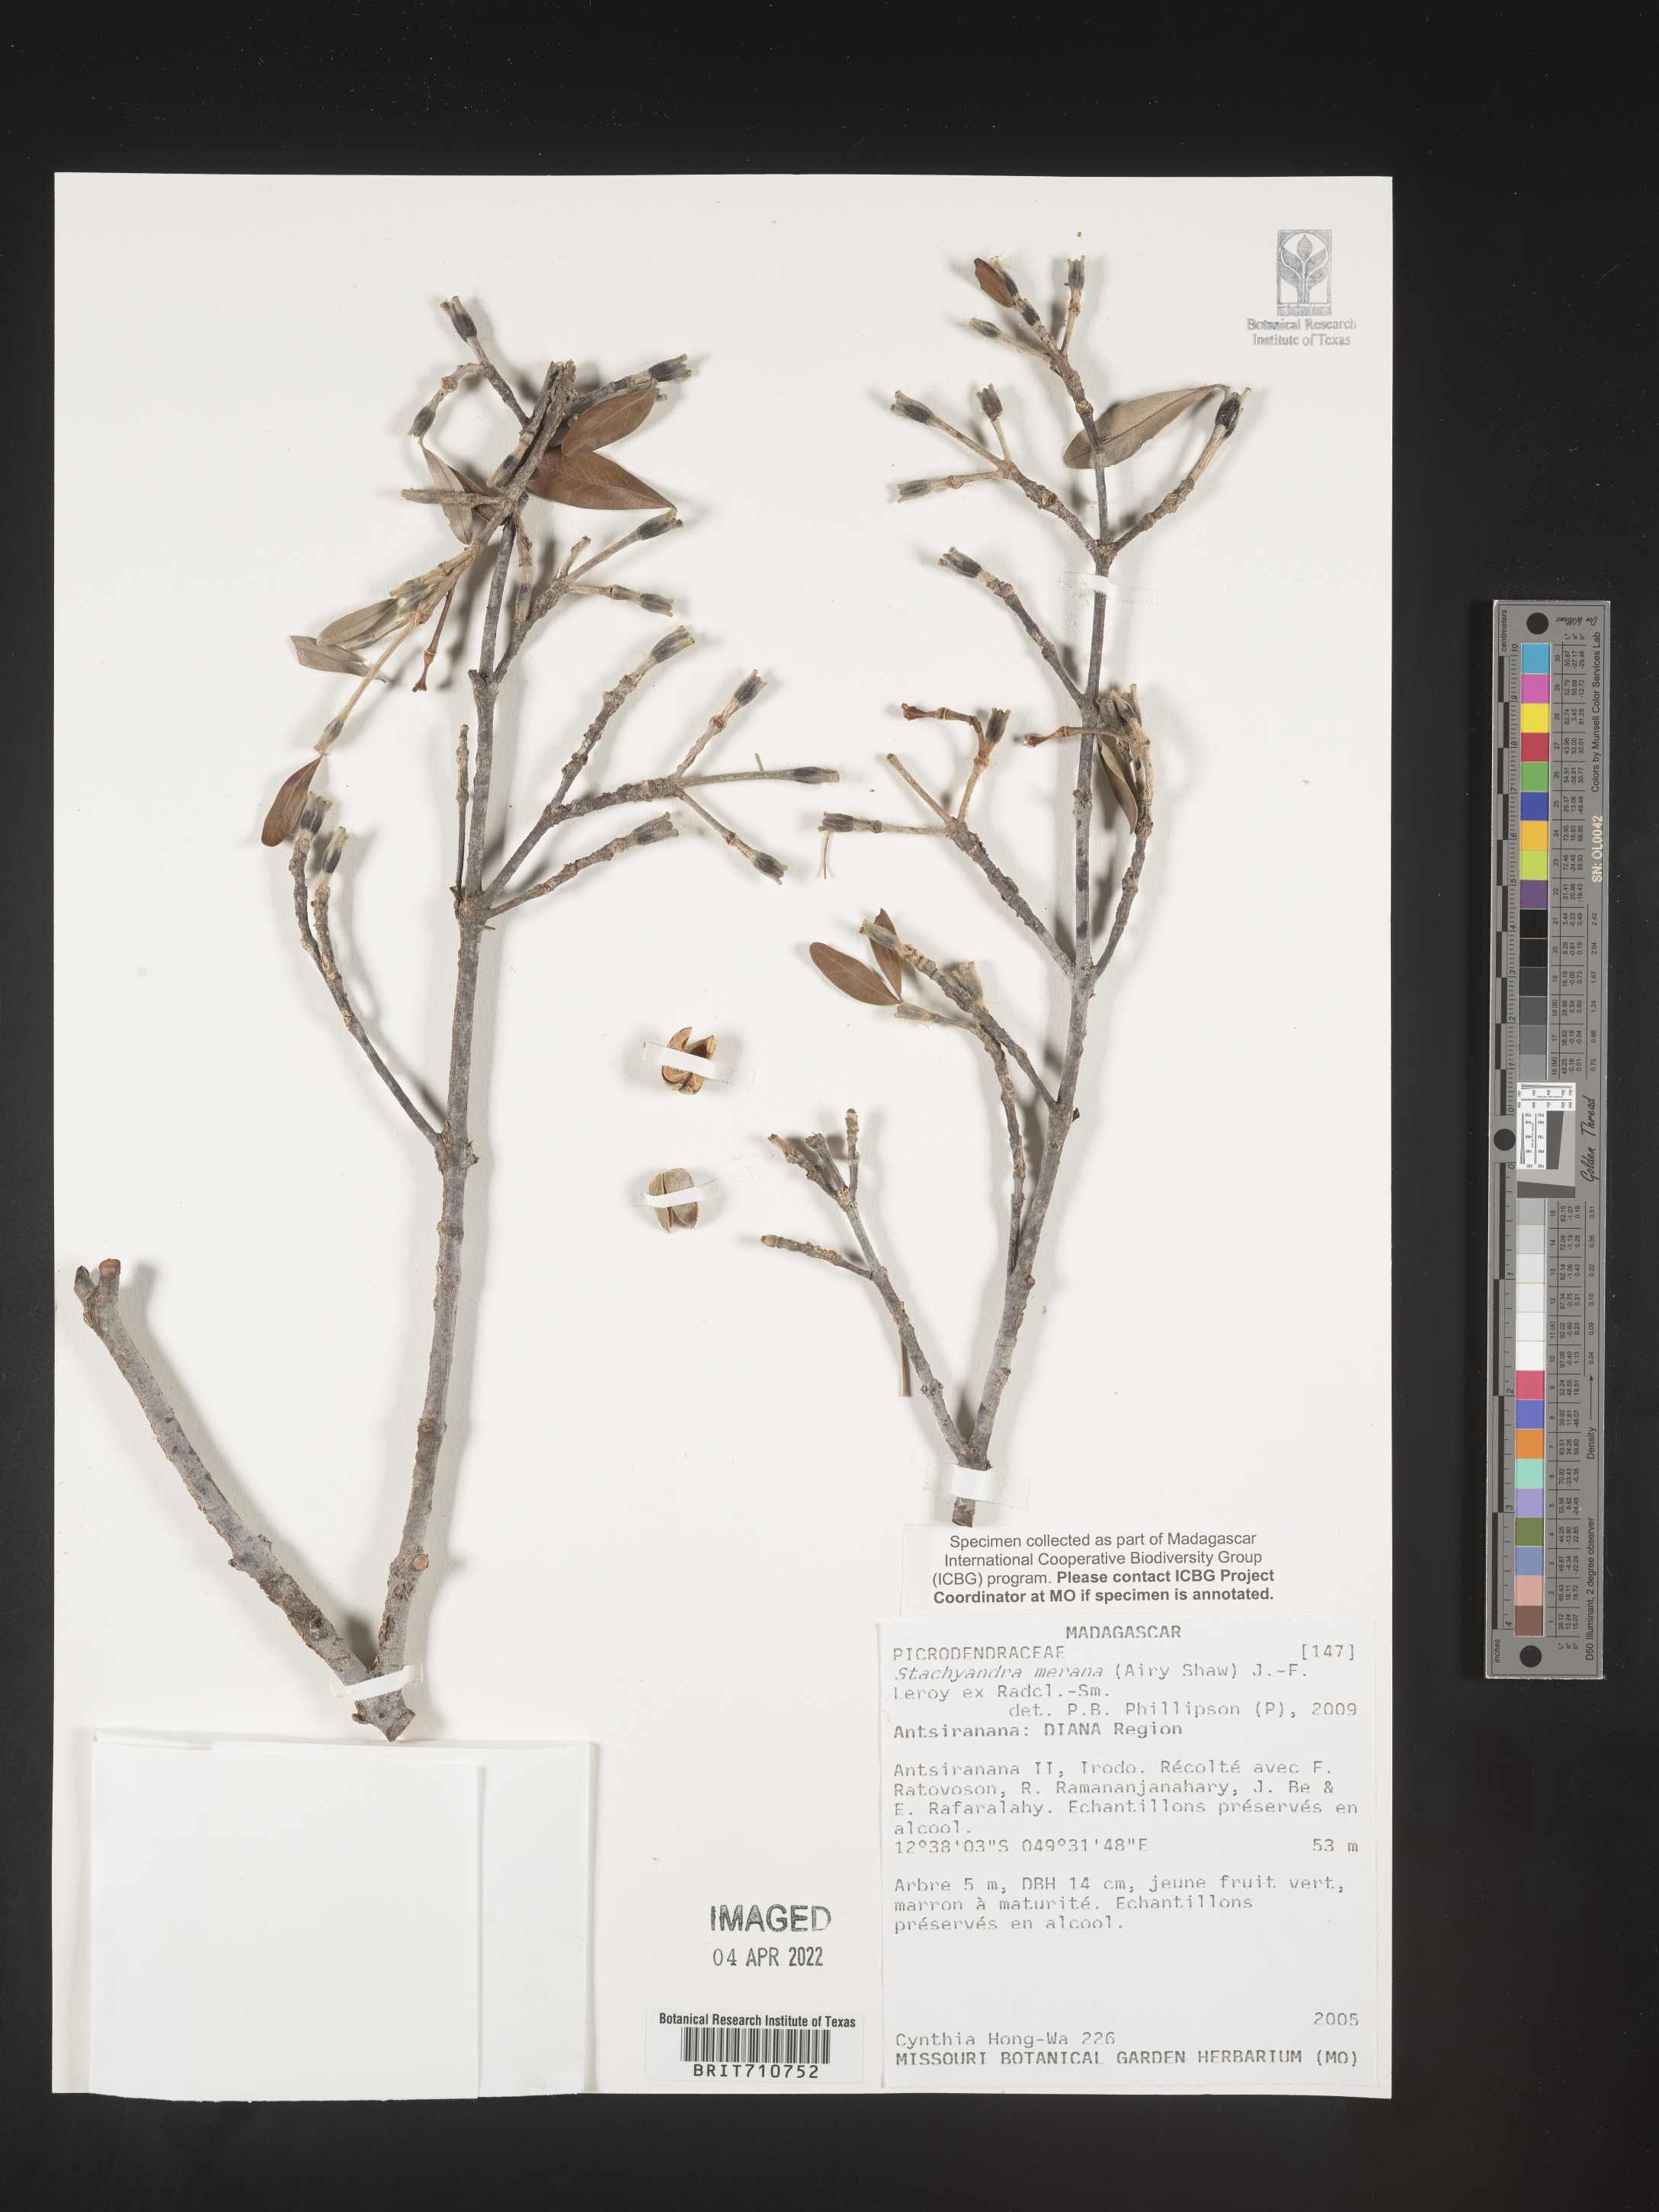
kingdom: Plantae
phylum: Tracheophyta
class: Magnoliopsida
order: Malpighiales
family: Picrodendraceae
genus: Stachyandra
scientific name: Stachyandra
